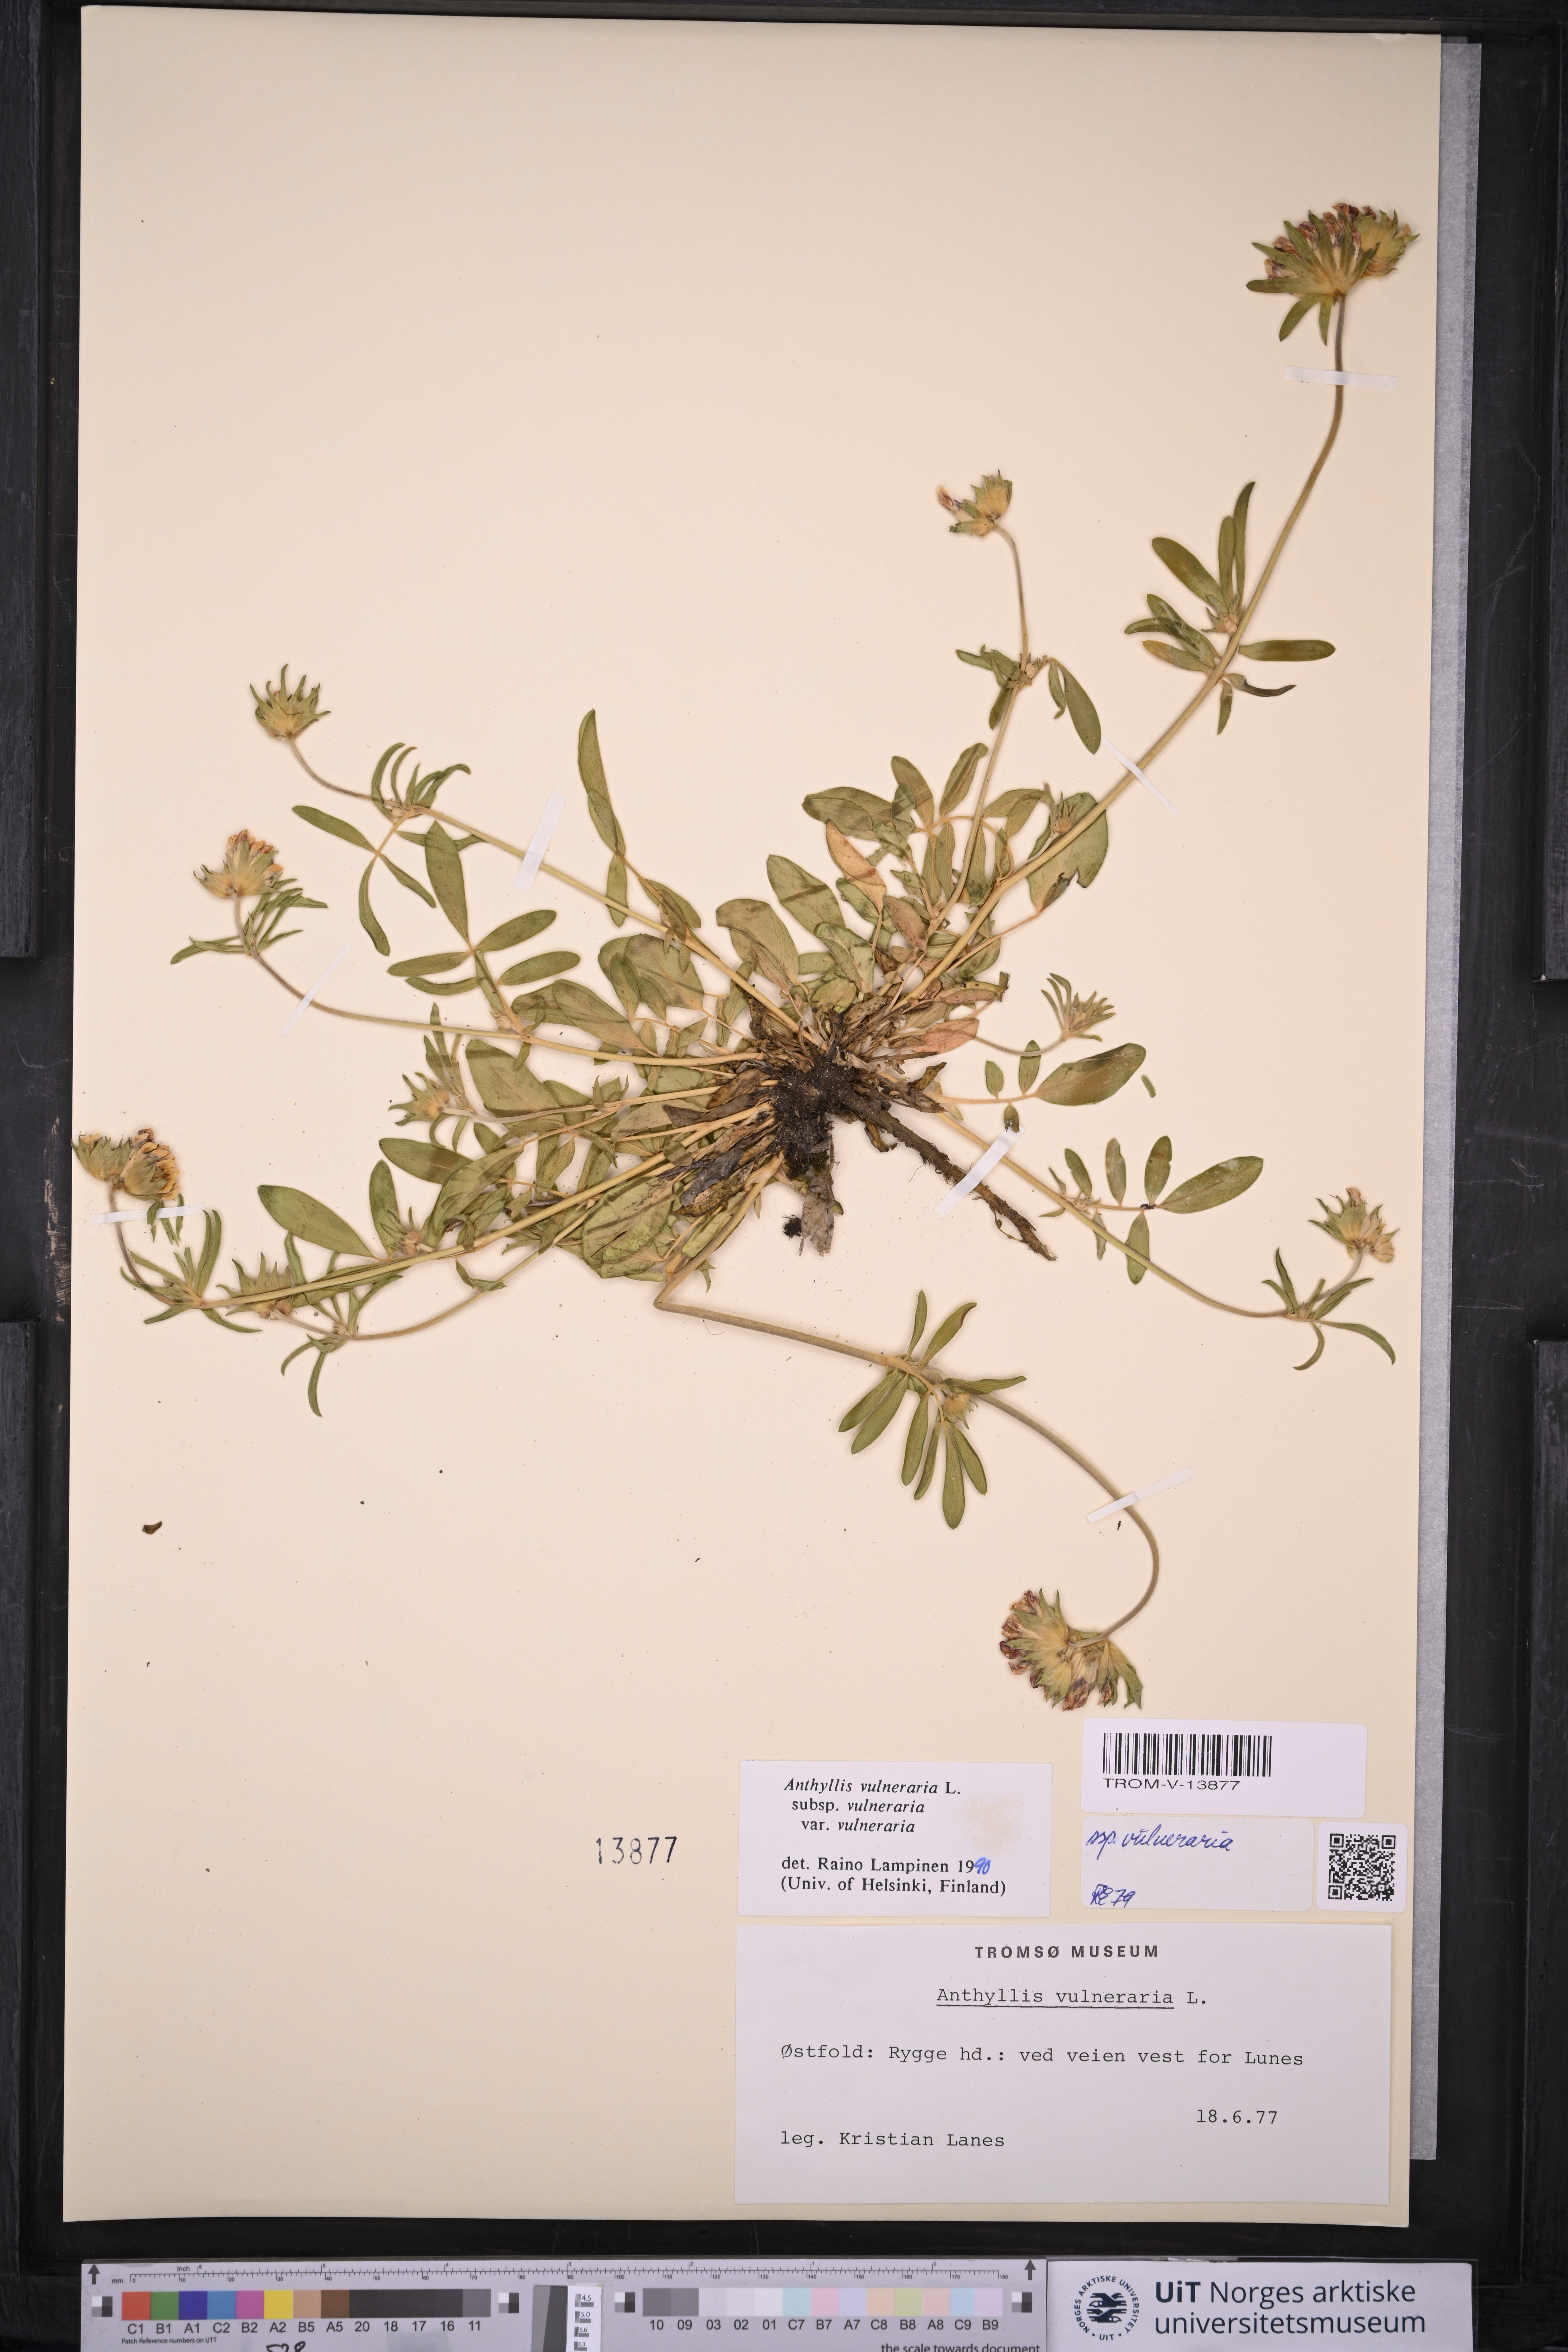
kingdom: Plantae
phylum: Tracheophyta
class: Magnoliopsida
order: Fabales
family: Fabaceae
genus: Anthyllis
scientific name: Anthyllis vulneraria
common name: Kidney vetch
